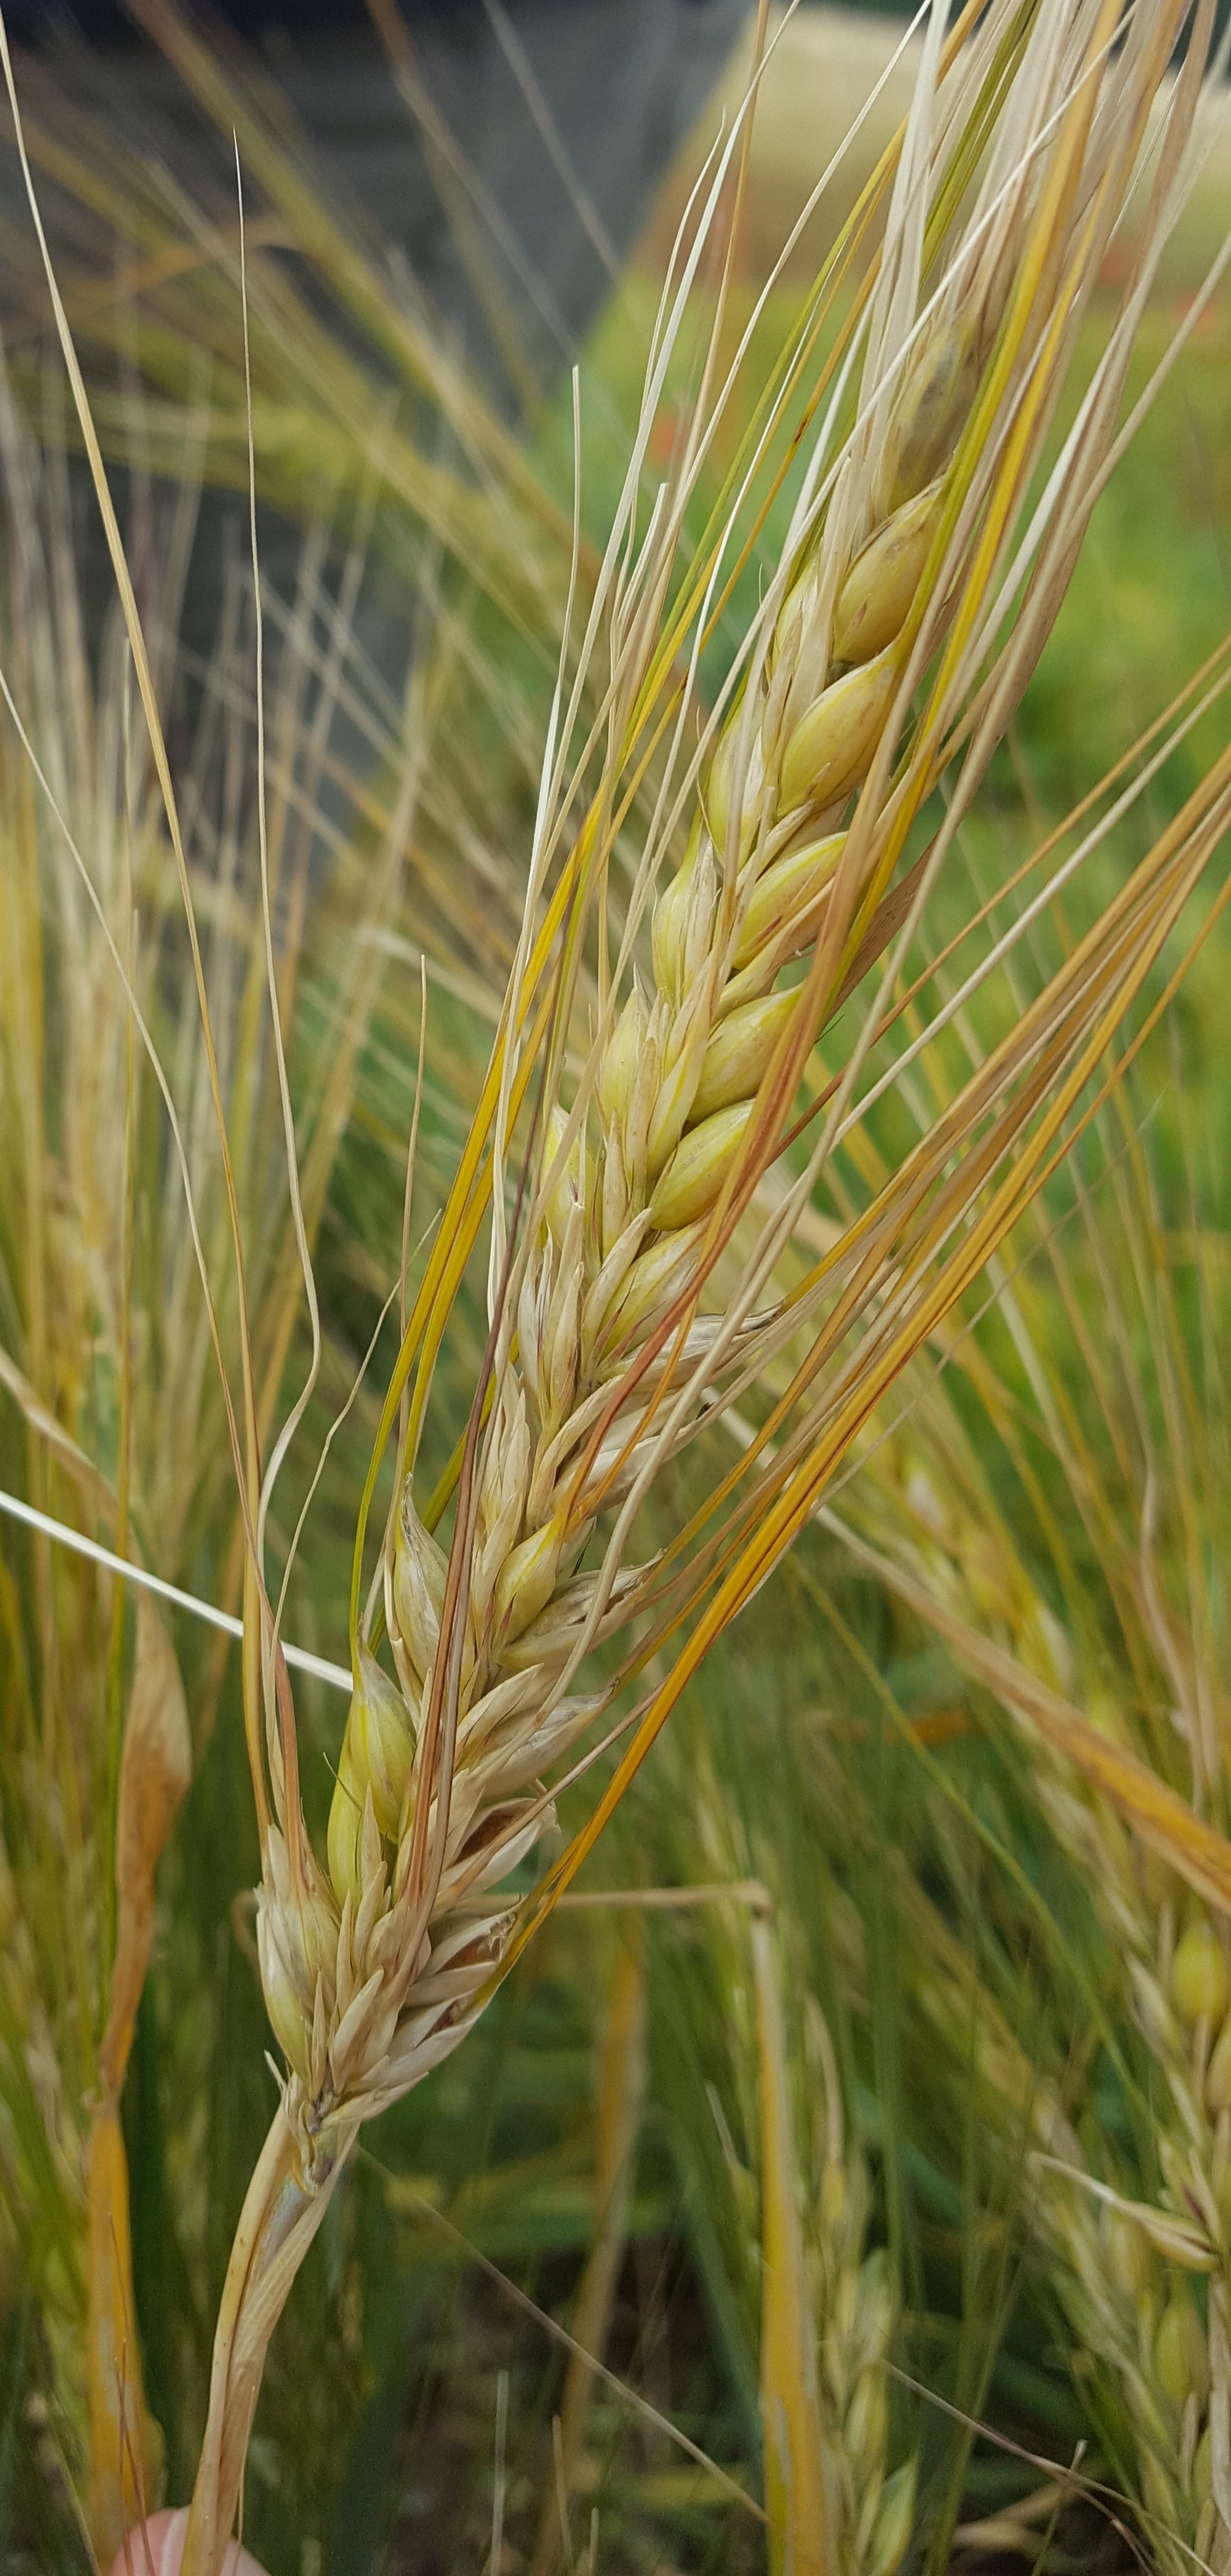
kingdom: Plantae
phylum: Tracheophyta
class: Liliopsida
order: Poales
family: Poaceae
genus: Hordeum
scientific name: Hordeum vulgare
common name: Common barley
